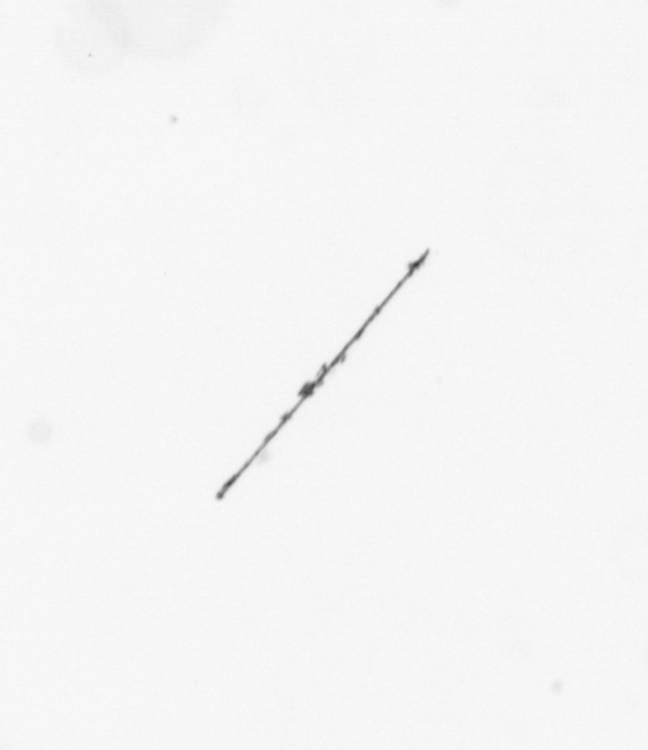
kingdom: Chromista
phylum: Ochrophyta
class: Bacillariophyceae
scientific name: Bacillariophyceae
